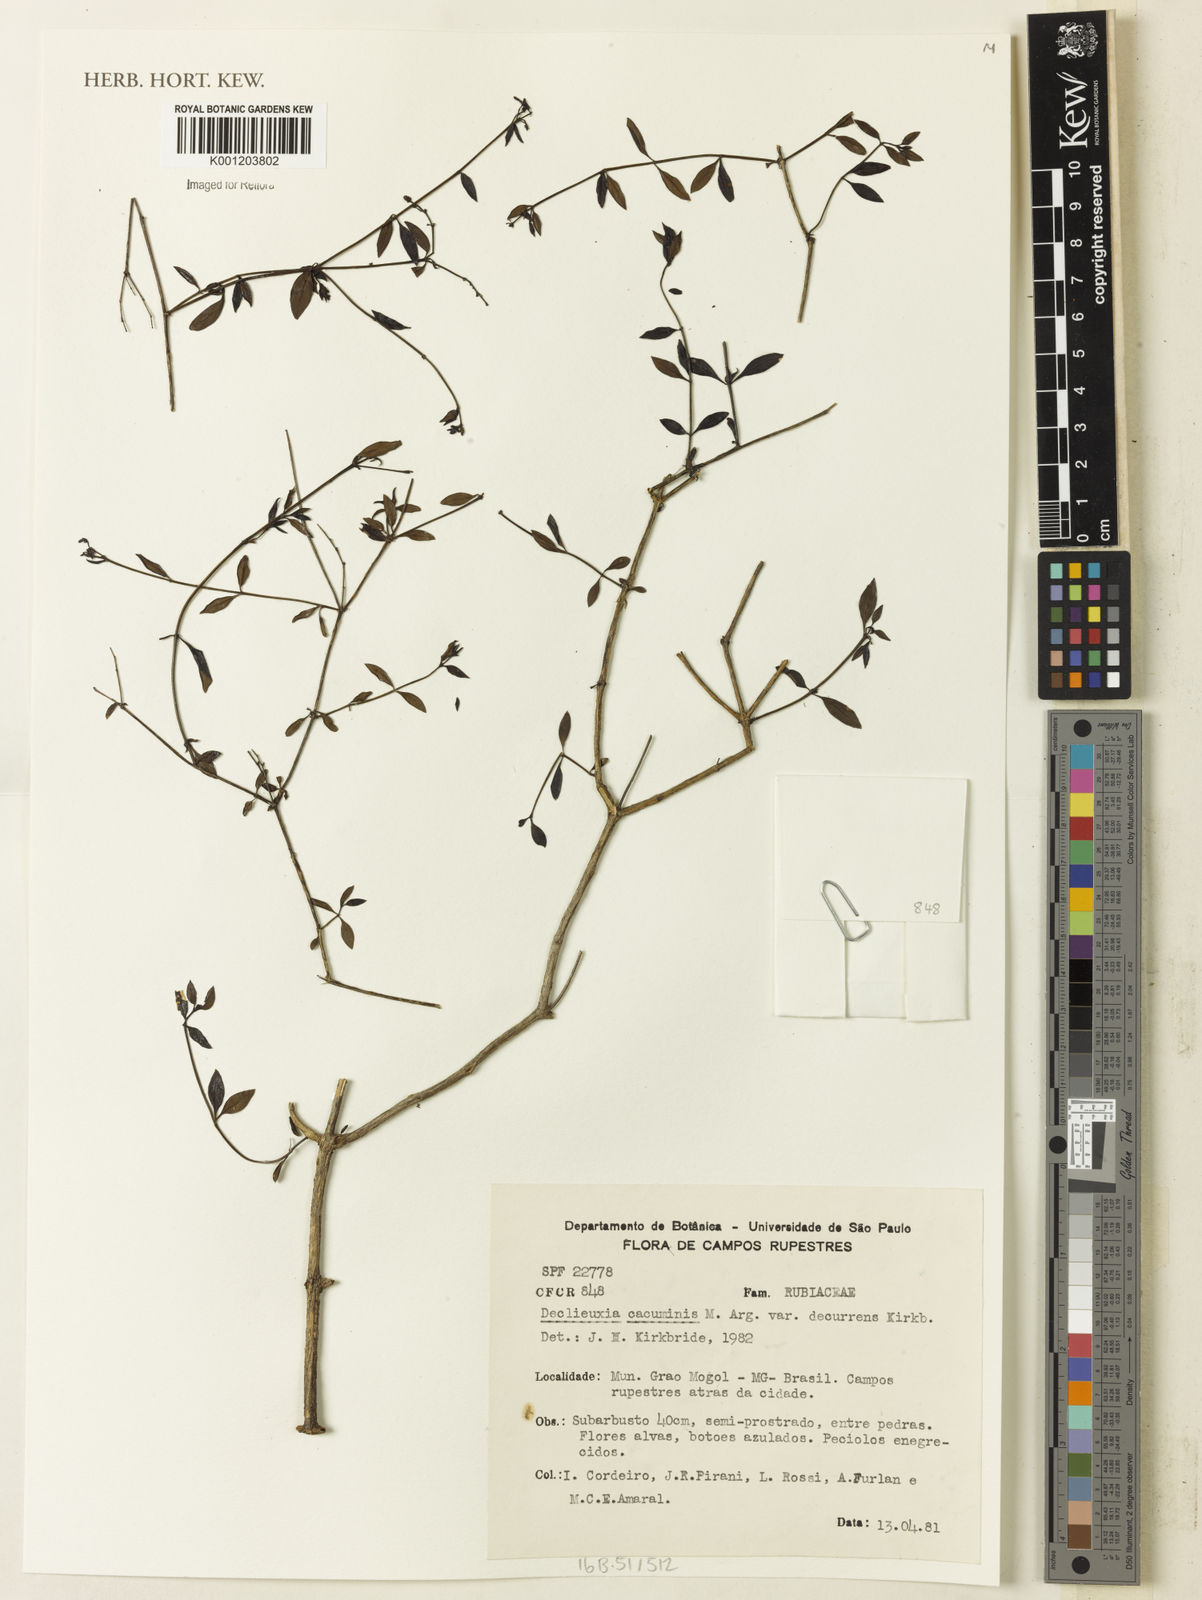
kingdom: Plantae
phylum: Tracheophyta
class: Magnoliopsida
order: Gentianales
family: Rubiaceae
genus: Declieuxia
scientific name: Declieuxia
